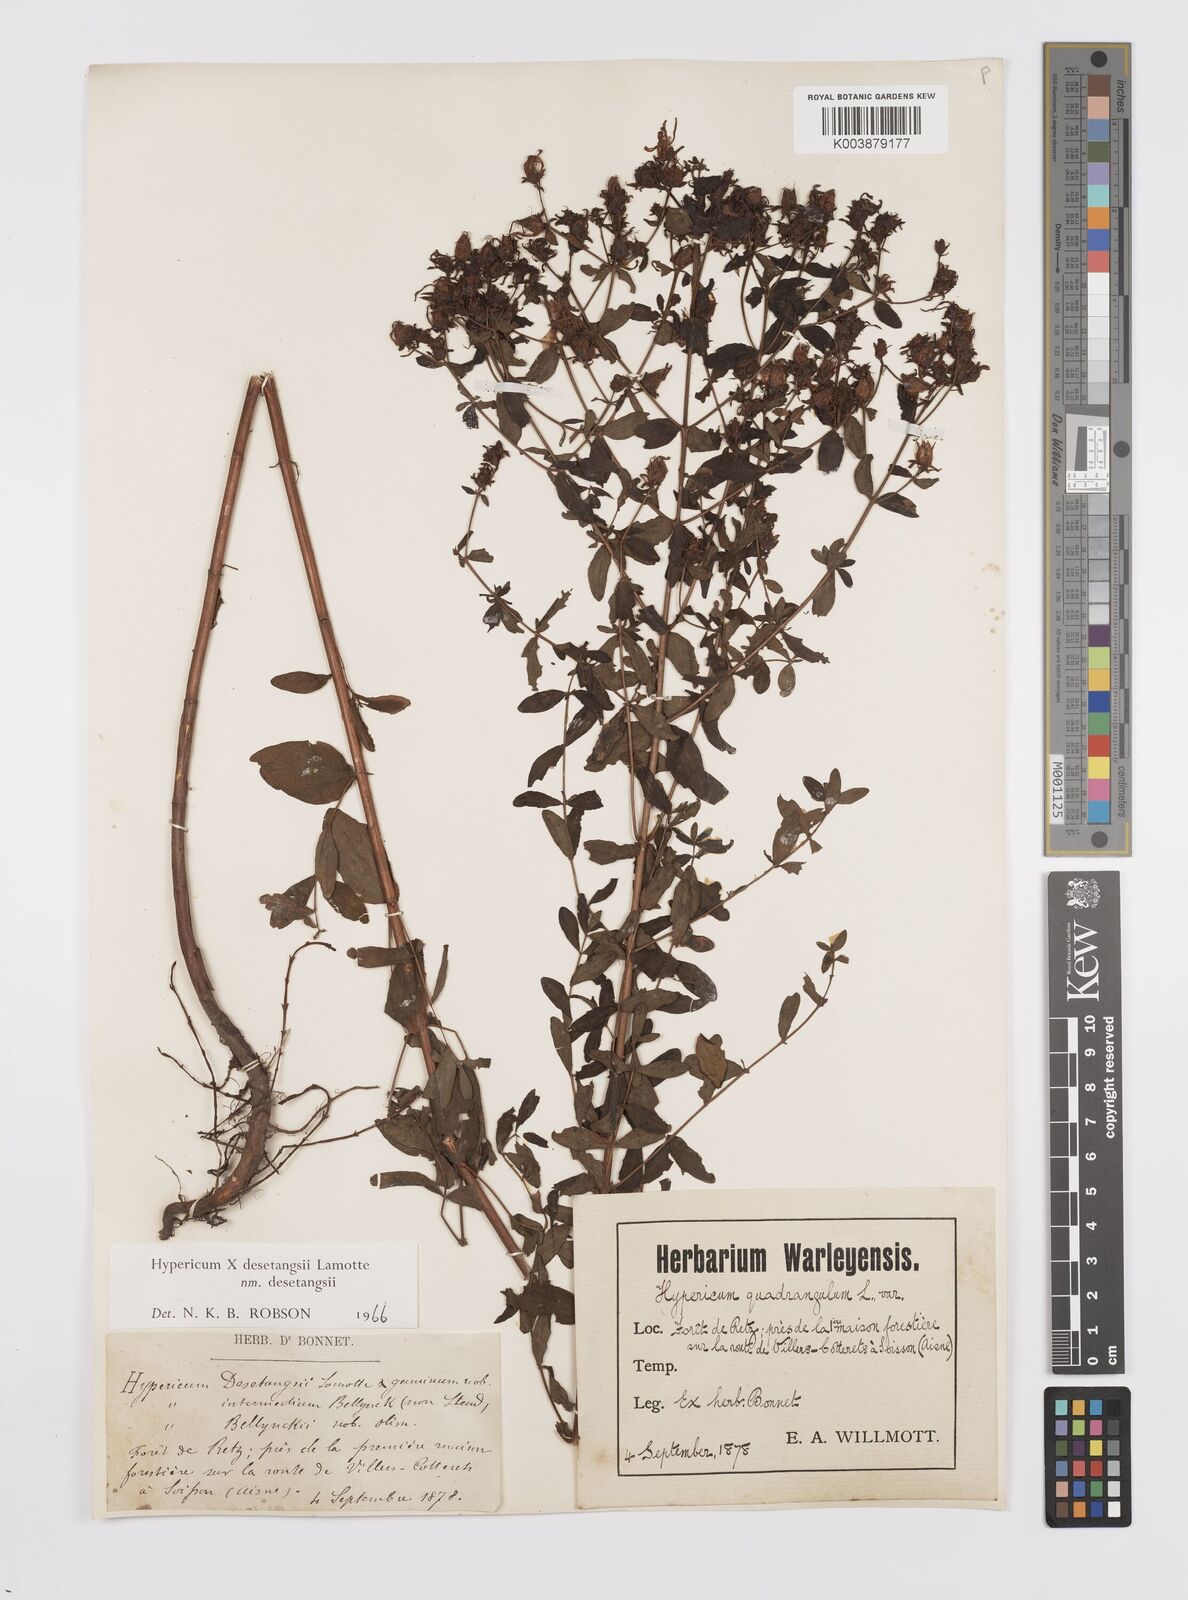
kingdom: Plantae
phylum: Tracheophyta
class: Magnoliopsida
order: Malpighiales
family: Hypericaceae
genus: Hypericum
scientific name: Hypericum desetangsii
